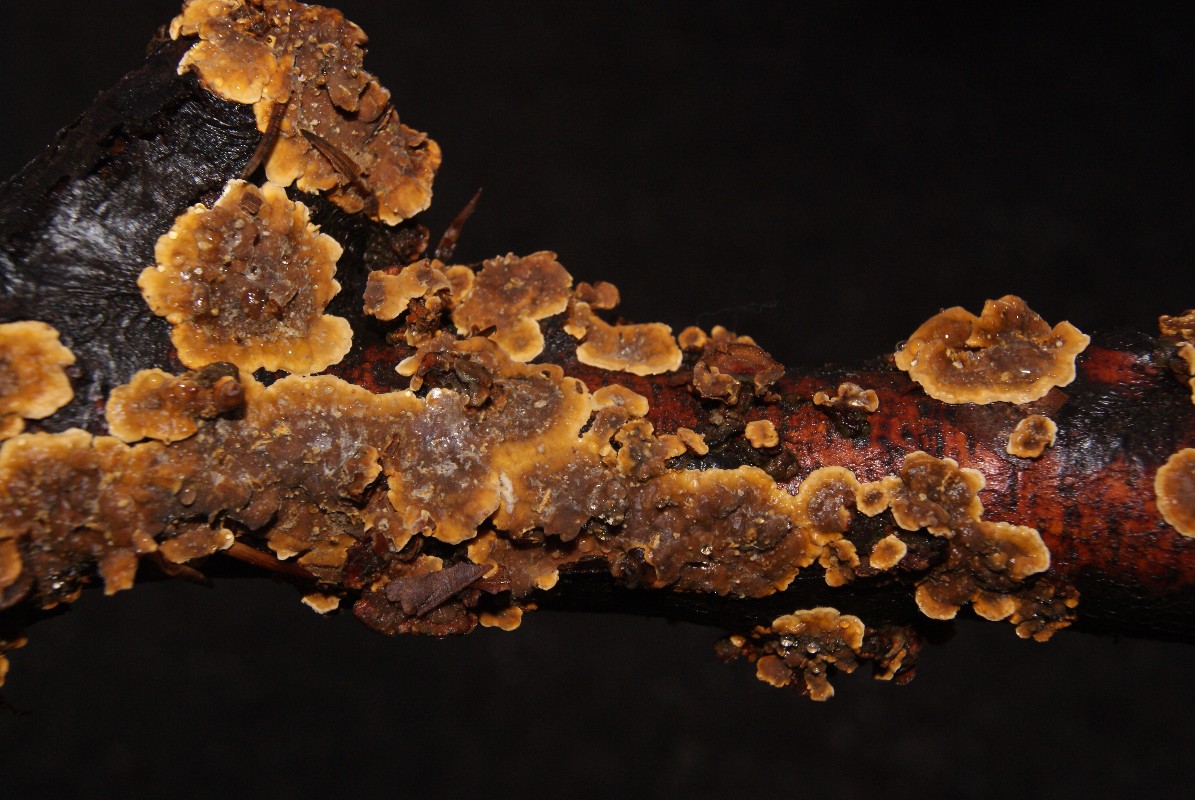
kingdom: Fungi
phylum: Basidiomycota
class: Agaricomycetes
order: Russulales
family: Stereaceae
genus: Stereum
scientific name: Stereum hirsutum
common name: håret lædersvamp
